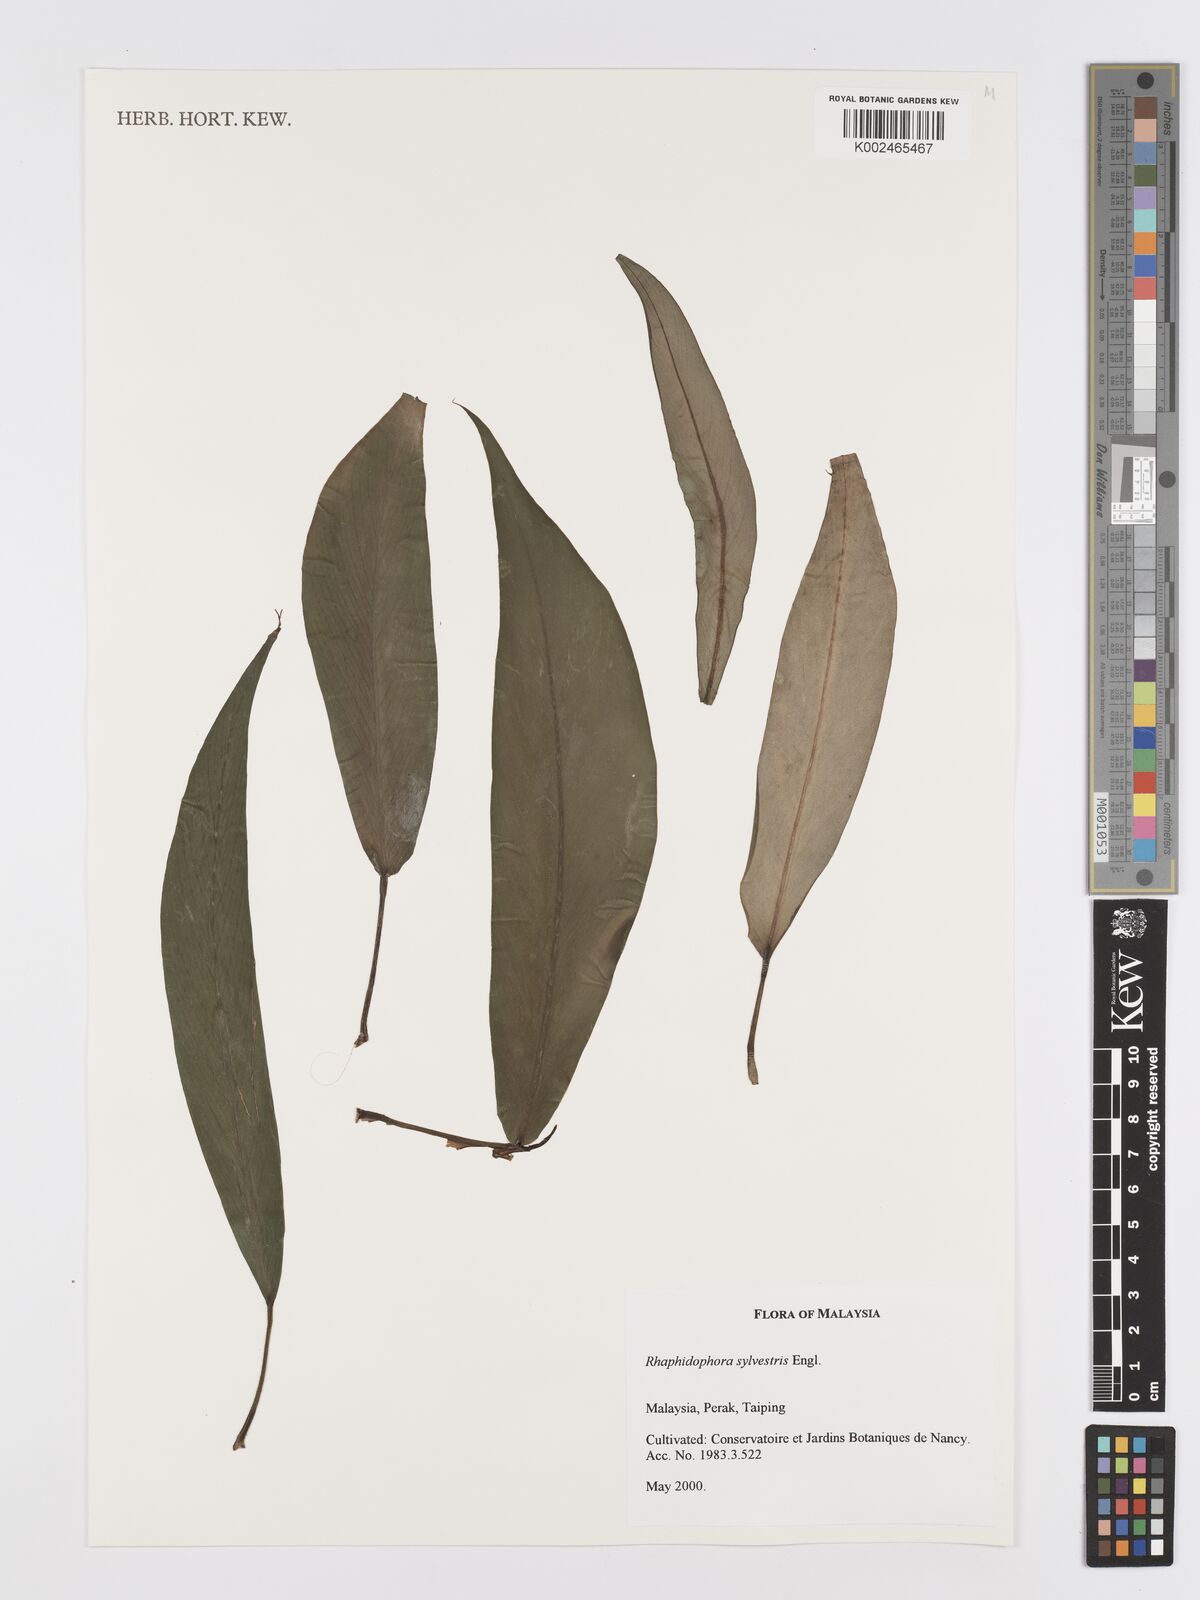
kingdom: Plantae
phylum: Tracheophyta
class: Liliopsida
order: Alismatales
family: Araceae
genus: Rhaphidophora
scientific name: Rhaphidophora sylvestris
